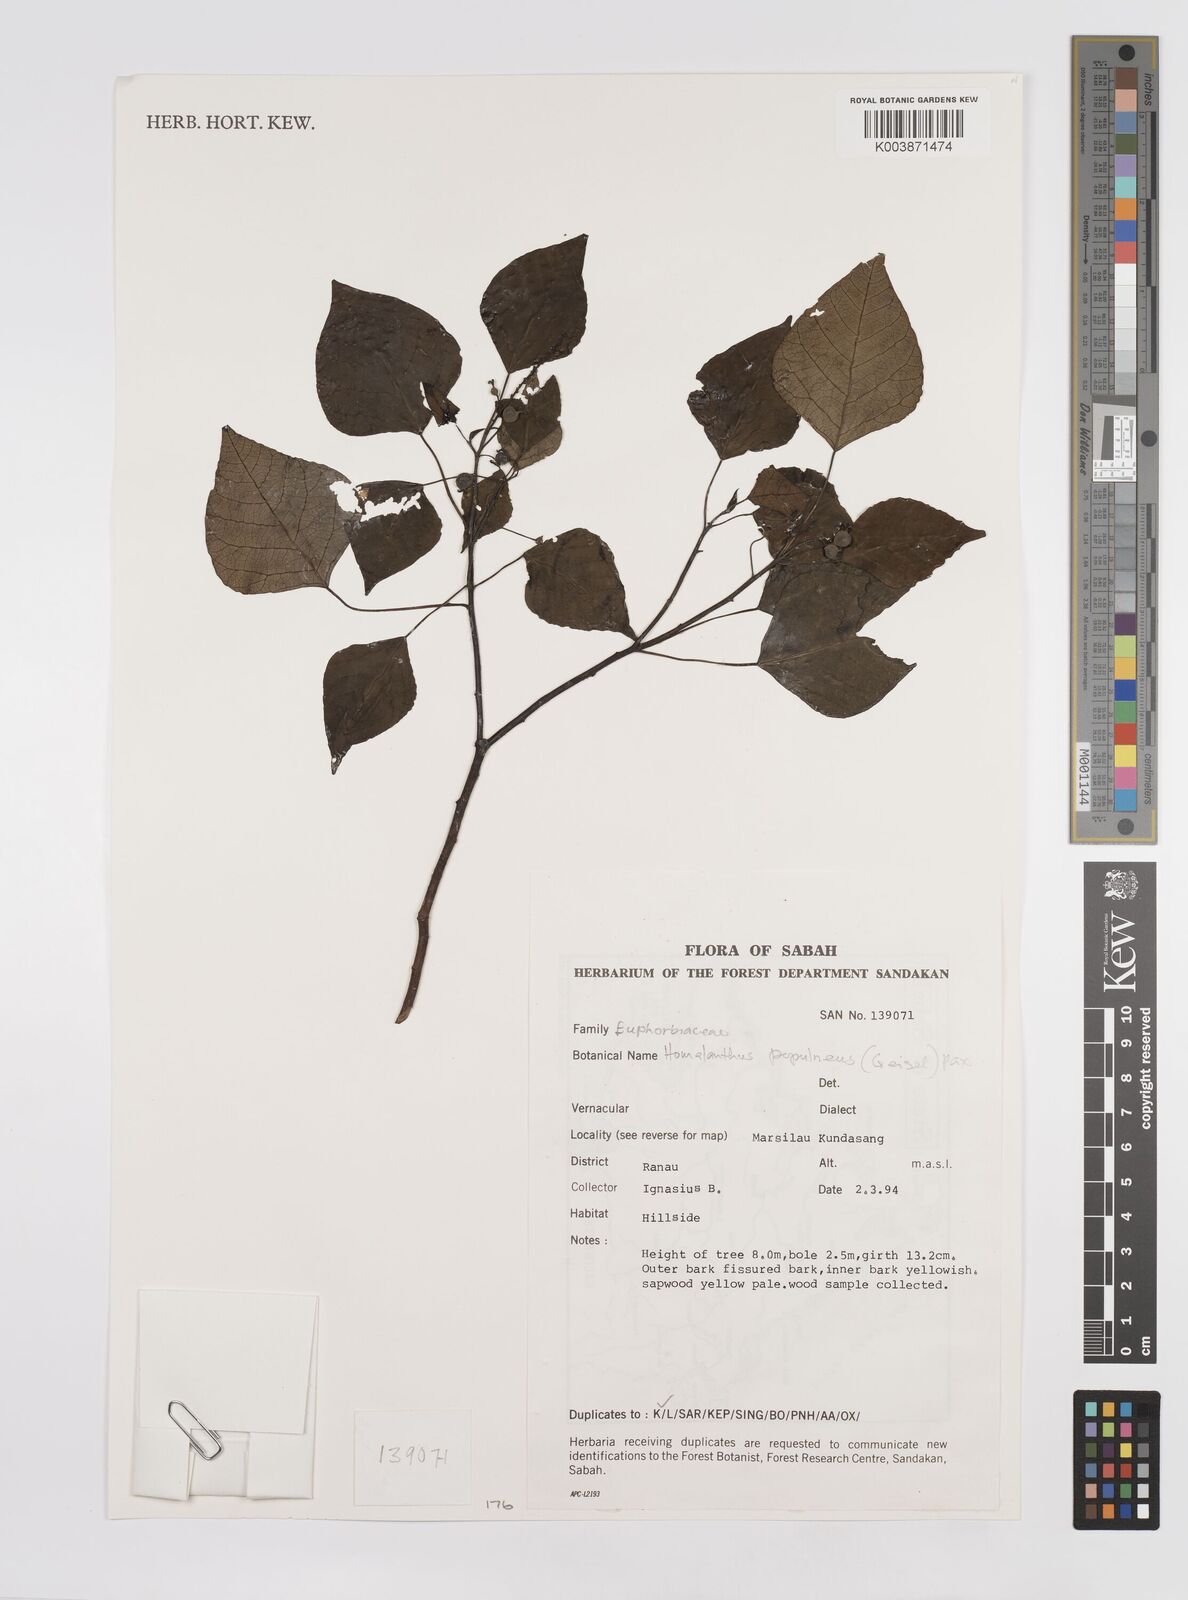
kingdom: Plantae
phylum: Tracheophyta
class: Magnoliopsida
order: Malpighiales
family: Euphorbiaceae
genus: Homalanthus
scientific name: Homalanthus populneus
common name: Spurge
